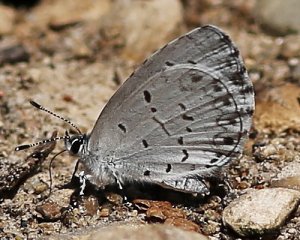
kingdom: Animalia
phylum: Arthropoda
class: Insecta
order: Lepidoptera
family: Lycaenidae
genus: Cyaniris
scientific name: Cyaniris neglecta
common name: Summer Azure
